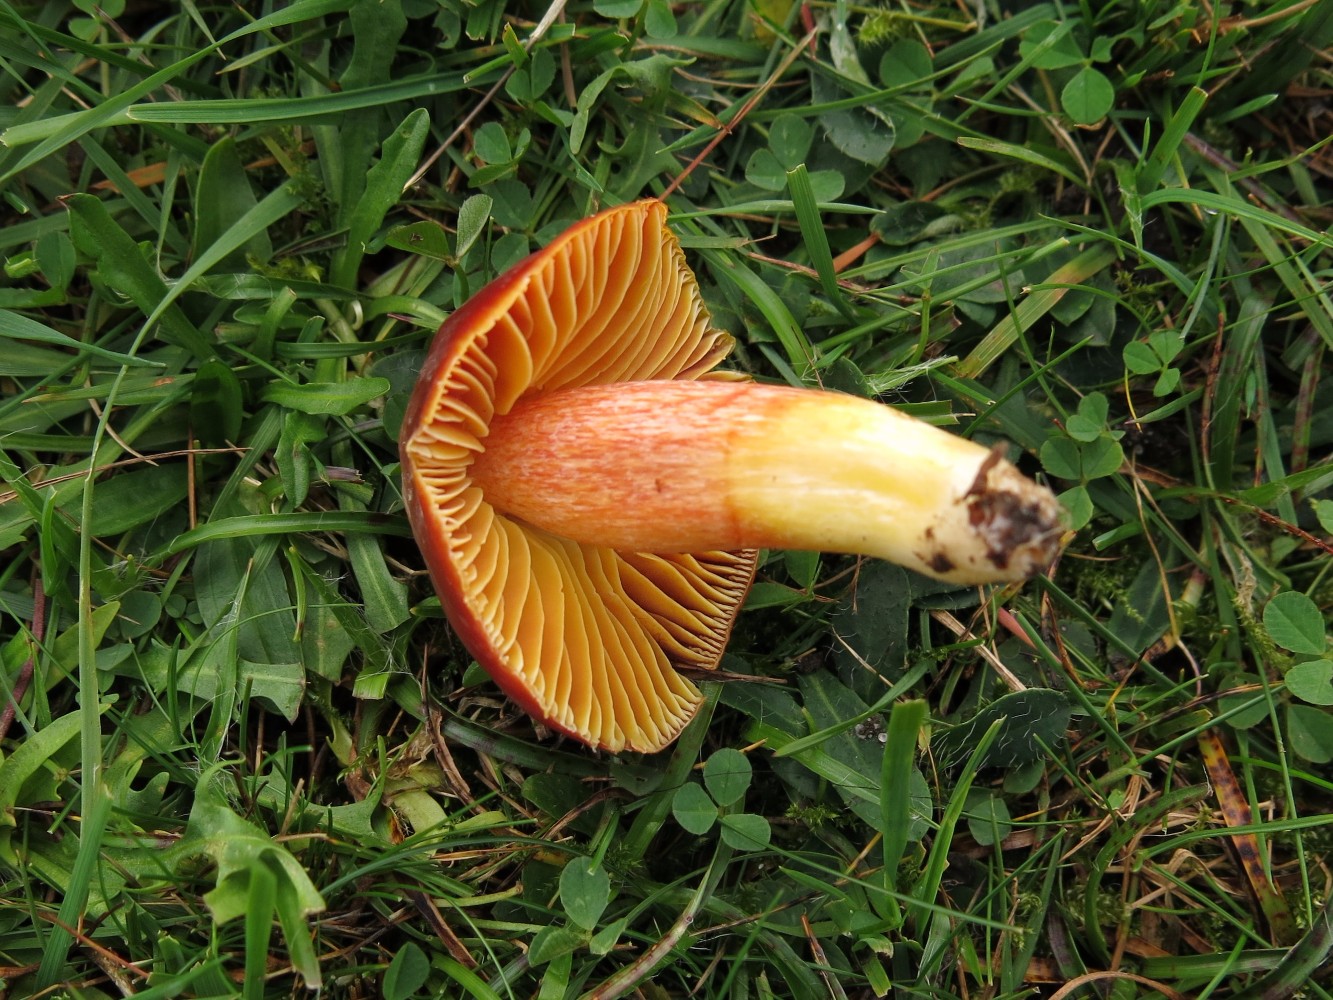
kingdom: Fungi
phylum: Basidiomycota
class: Agaricomycetes
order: Agaricales
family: Hygrophoraceae
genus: Hygrocybe
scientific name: Hygrocybe punicea
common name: skarlagen-vokshat
